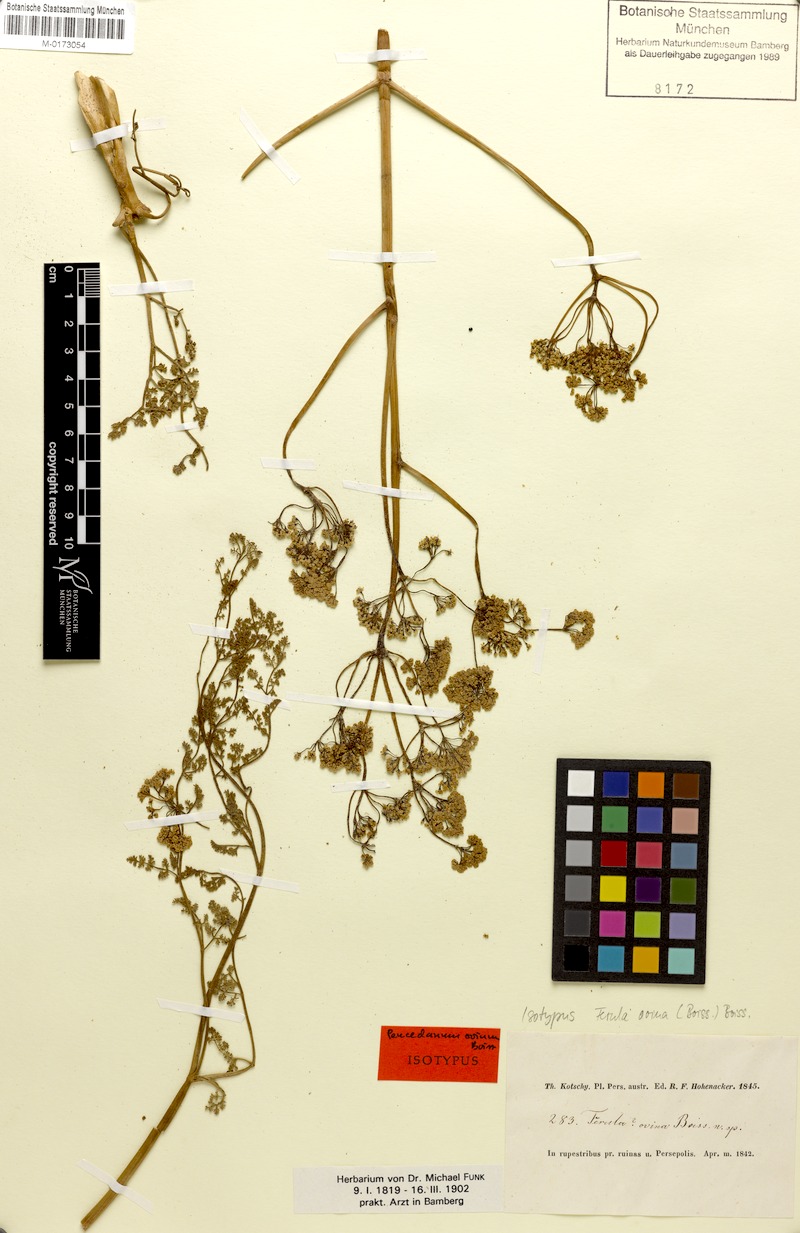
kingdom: Plantae
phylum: Tracheophyta
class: Magnoliopsida
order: Apiales
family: Apiaceae
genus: Ferula
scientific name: Ferula ovina
